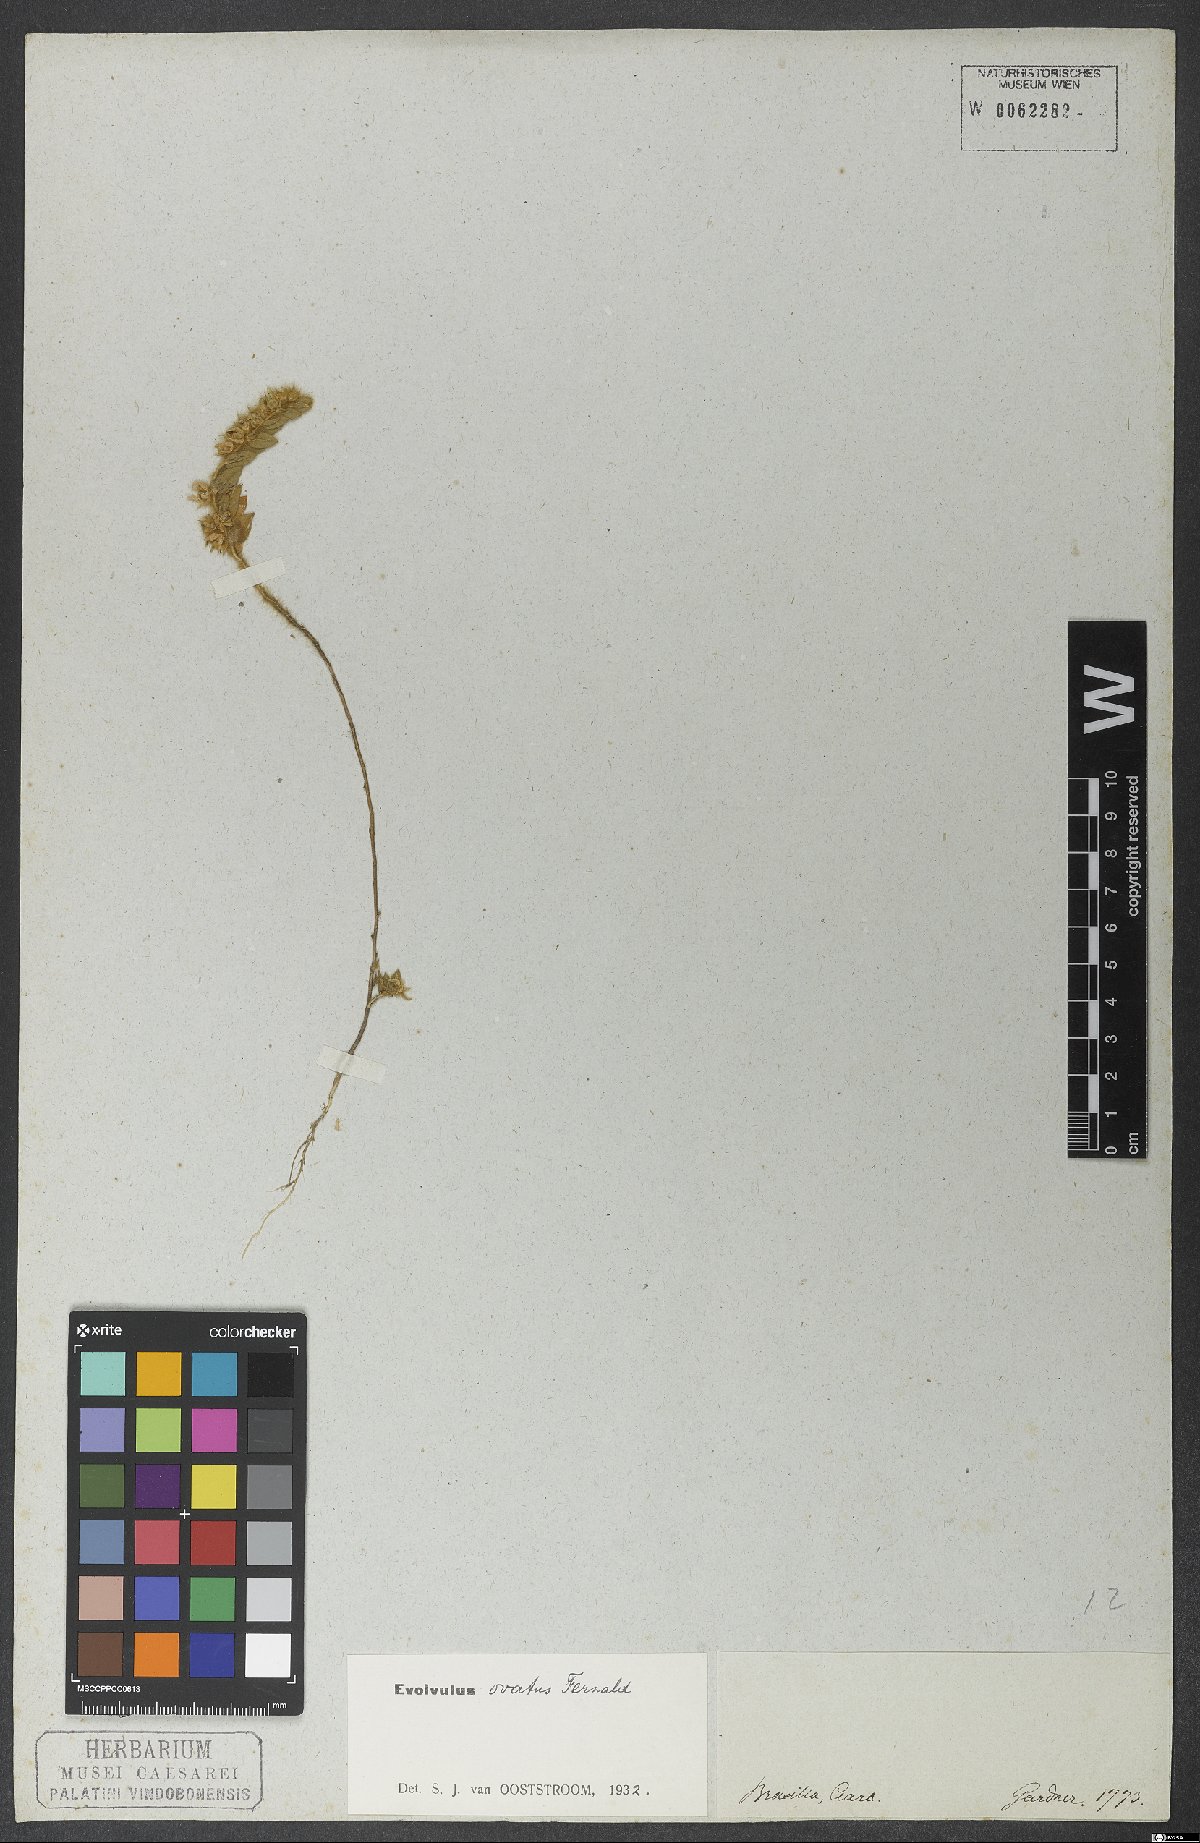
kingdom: Plantae
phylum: Tracheophyta
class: Magnoliopsida
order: Solanales
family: Convolvulaceae
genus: Evolvulus
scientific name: Evolvulus ovatus
